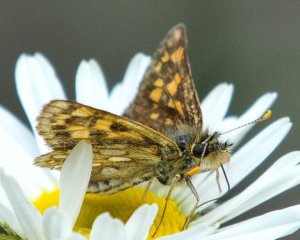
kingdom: Animalia
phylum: Arthropoda
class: Insecta
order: Lepidoptera
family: Hesperiidae
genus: Carterocephalus
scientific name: Carterocephalus
